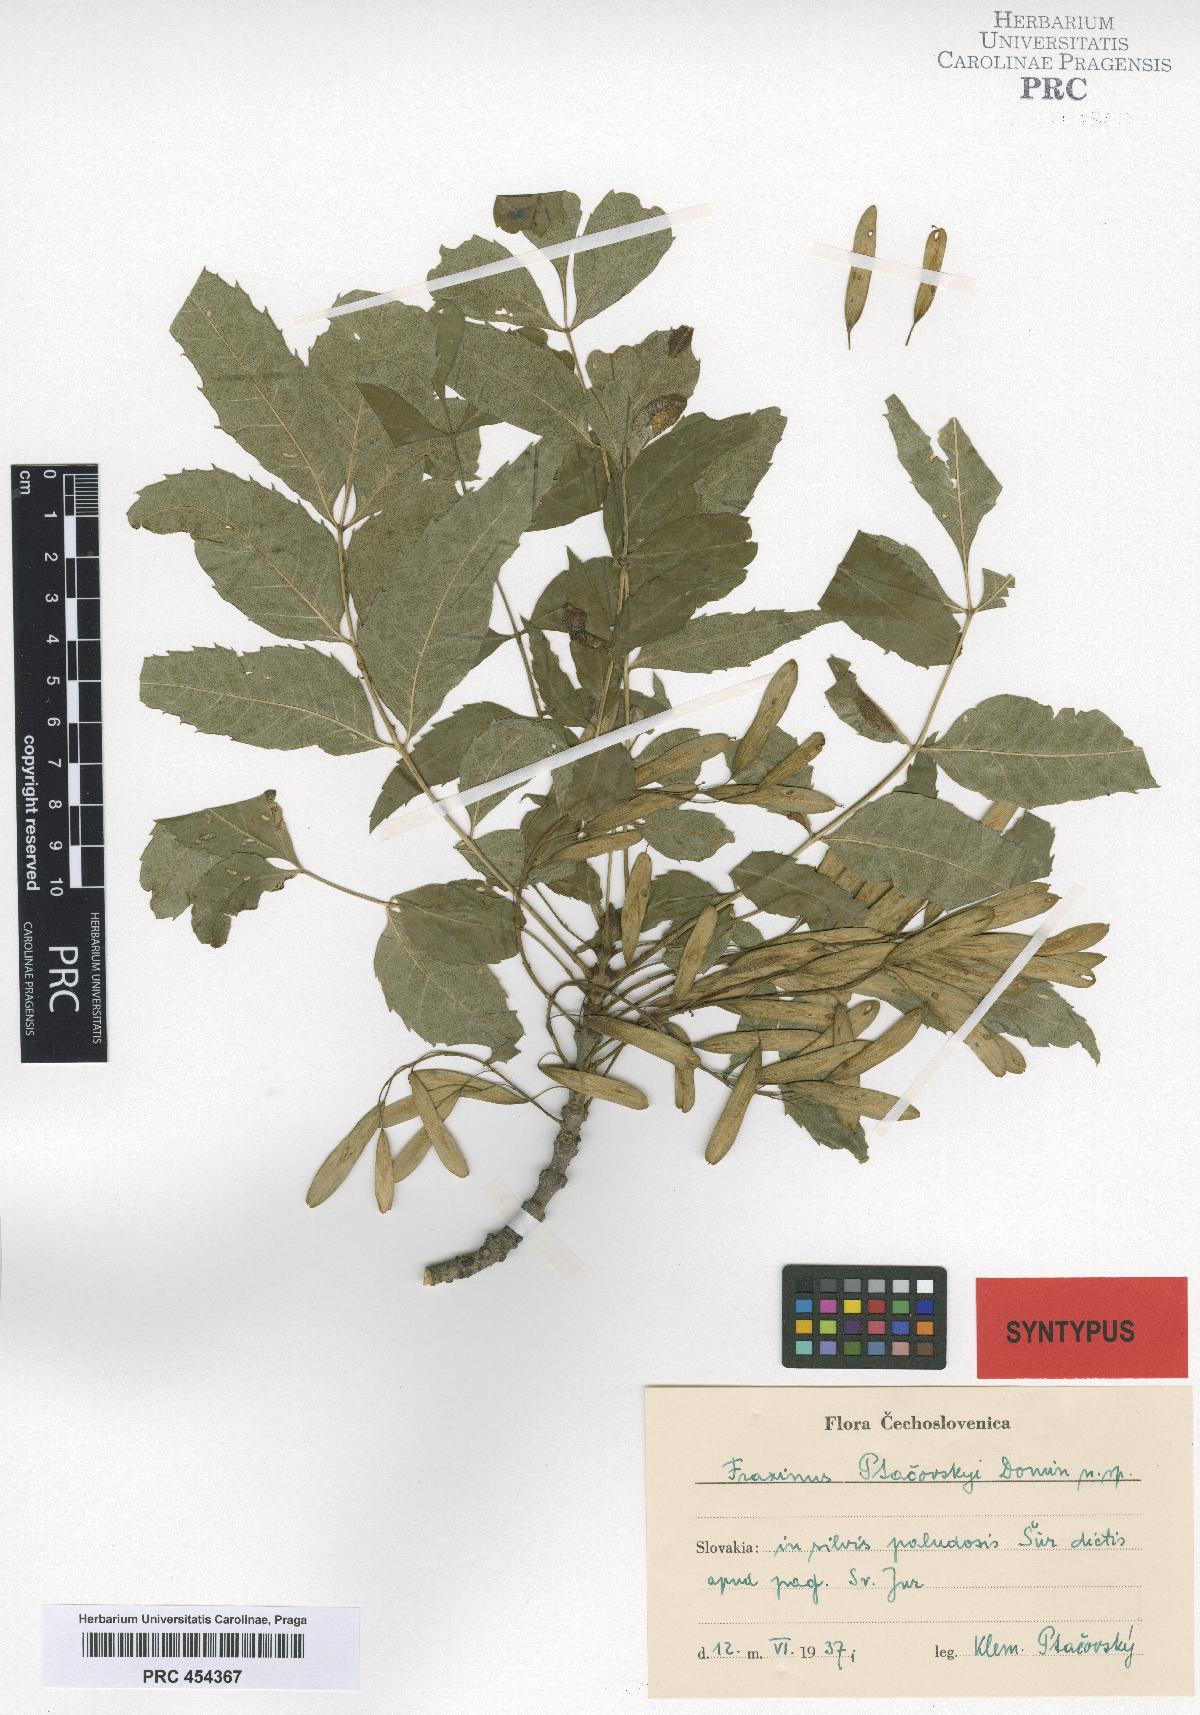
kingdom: Plantae
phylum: Tracheophyta
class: Magnoliopsida
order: Lamiales
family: Oleaceae
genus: Fraxinus
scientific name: Fraxinus angustifolia
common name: Narrow-leafed ash
